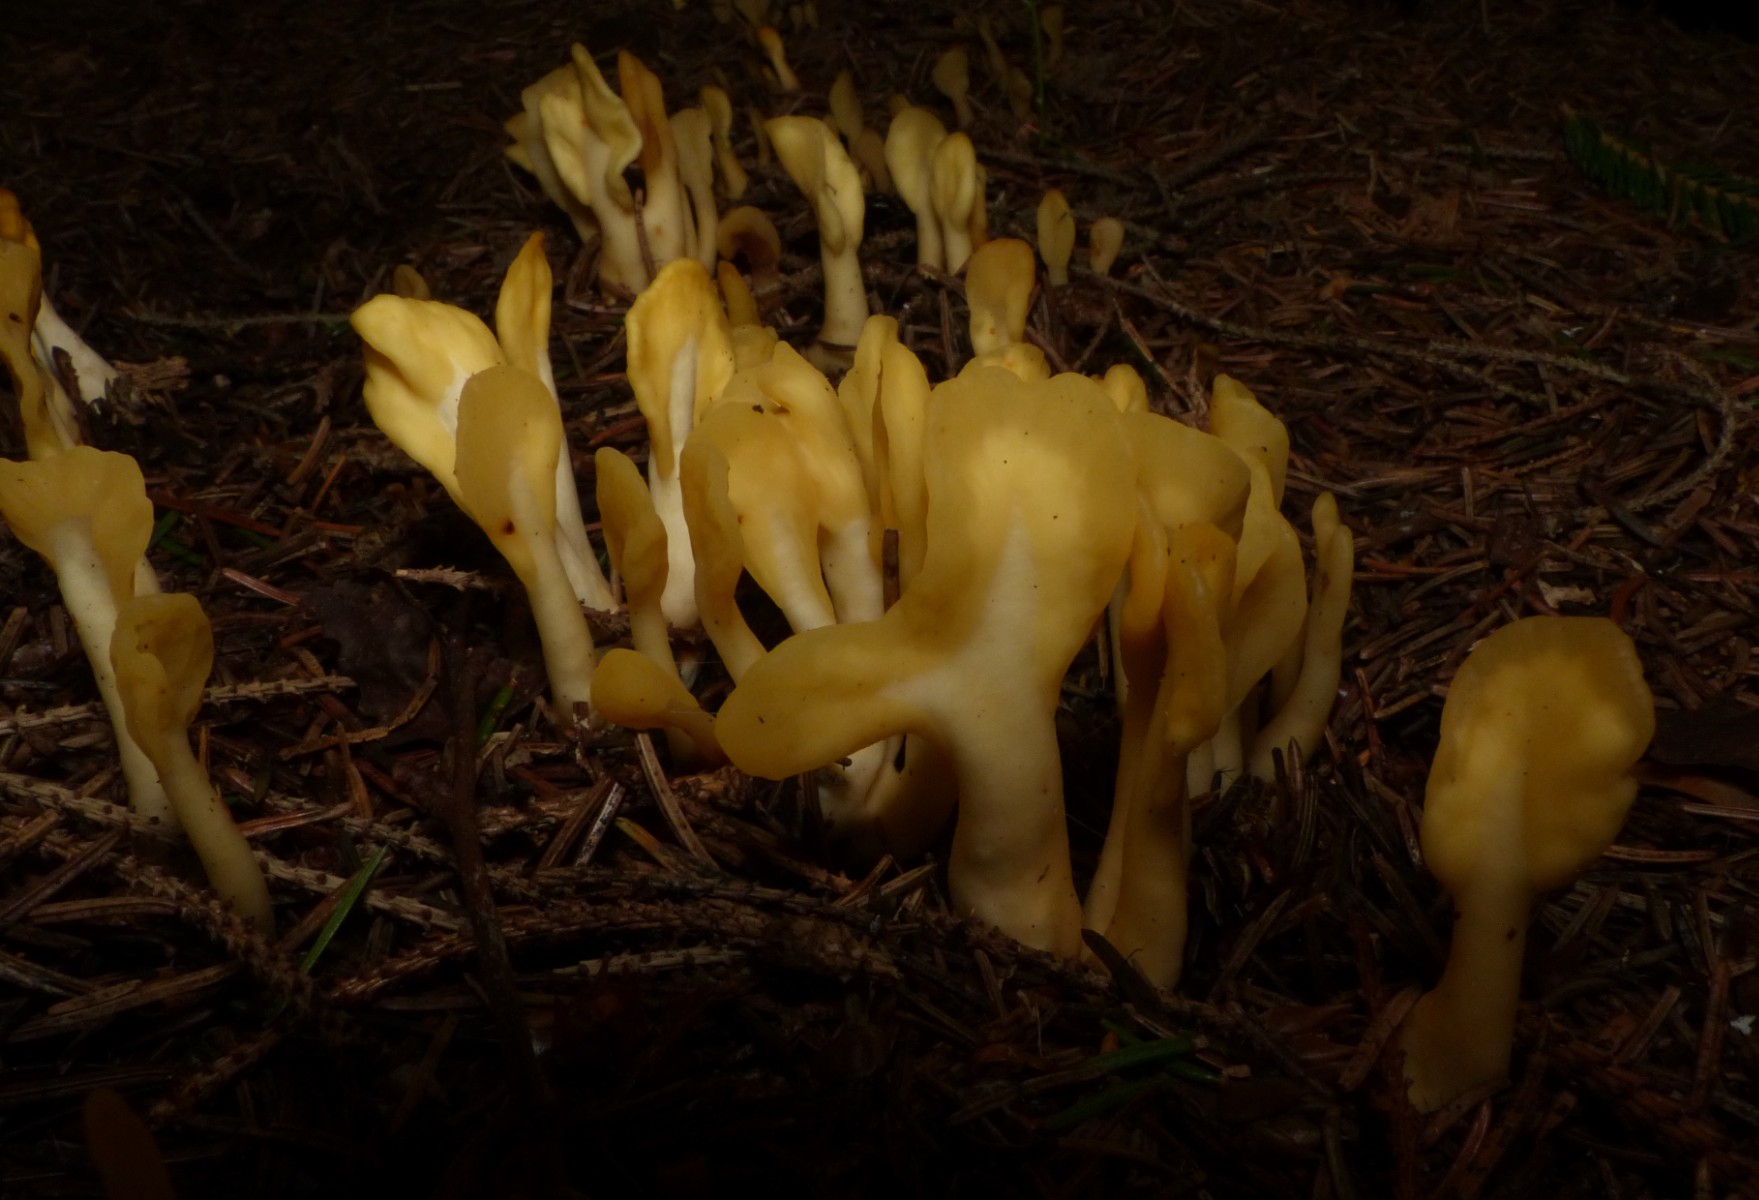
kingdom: Fungi
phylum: Ascomycota
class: Leotiomycetes
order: Rhytismatales
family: Cudoniaceae
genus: Spathularia
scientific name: Spathularia flavida
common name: gul spatelsvamp
